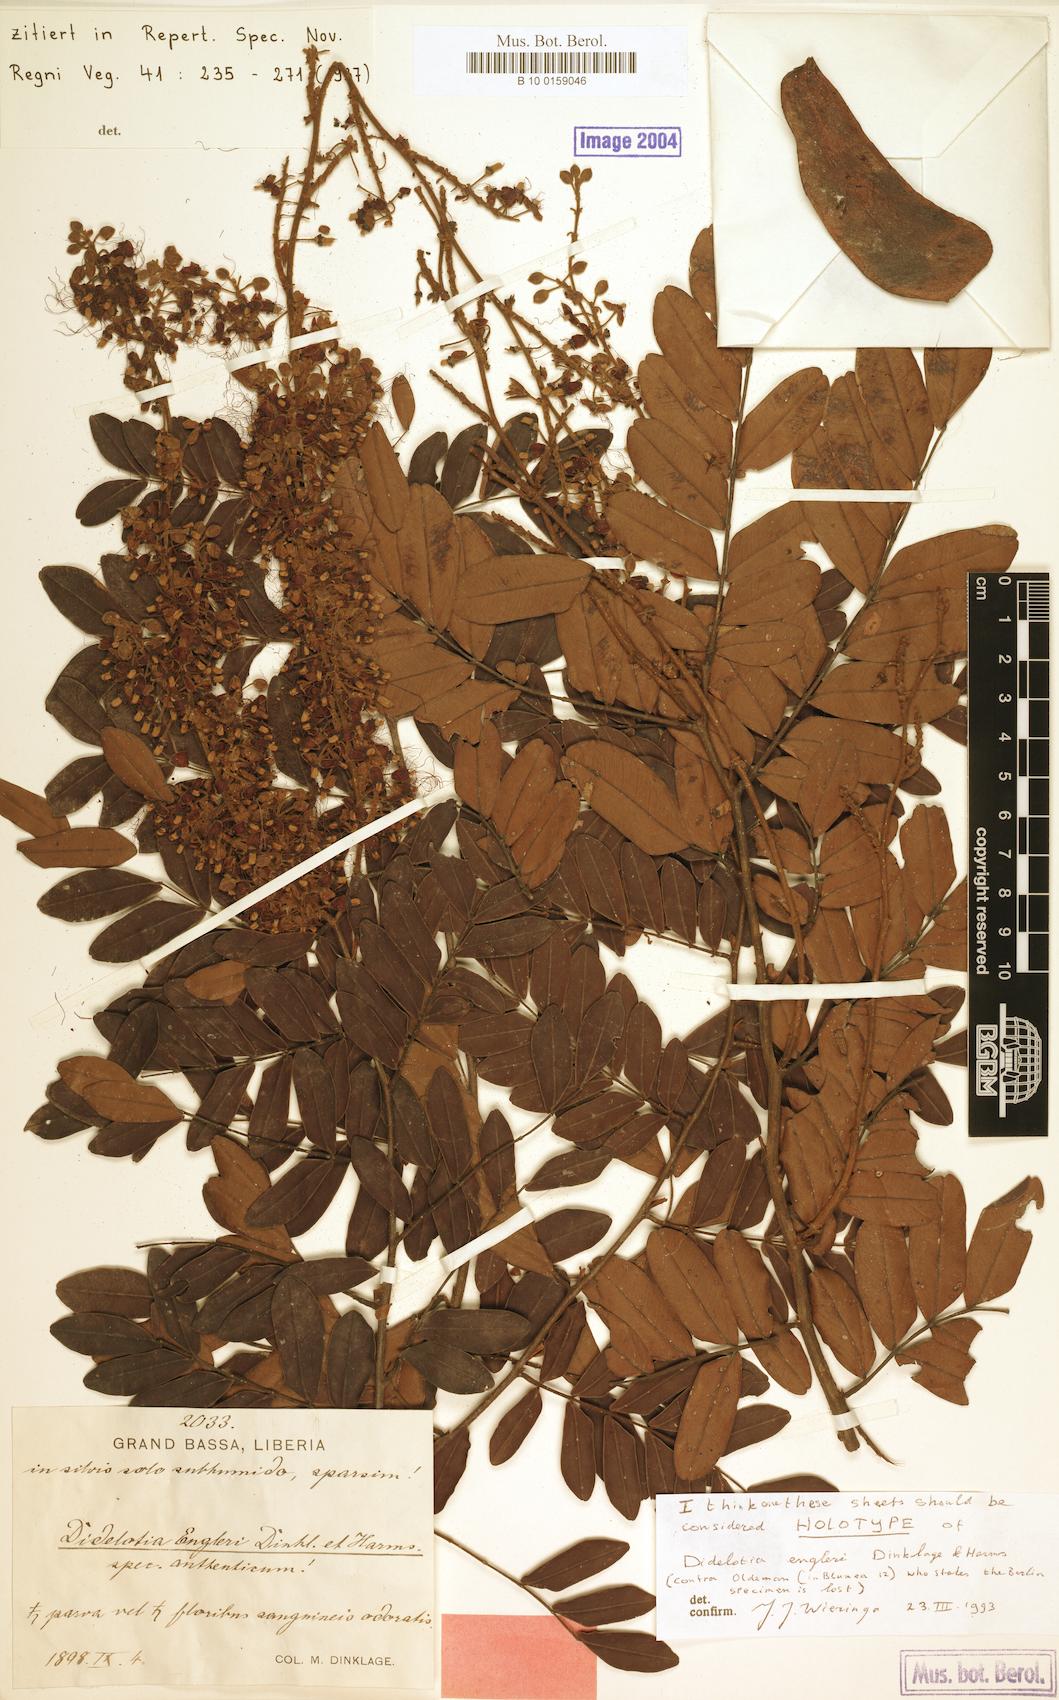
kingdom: Plantae
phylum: Tracheophyta
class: Magnoliopsida
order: Fabales
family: Fabaceae
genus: Didelotia
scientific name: Didelotia engleri
